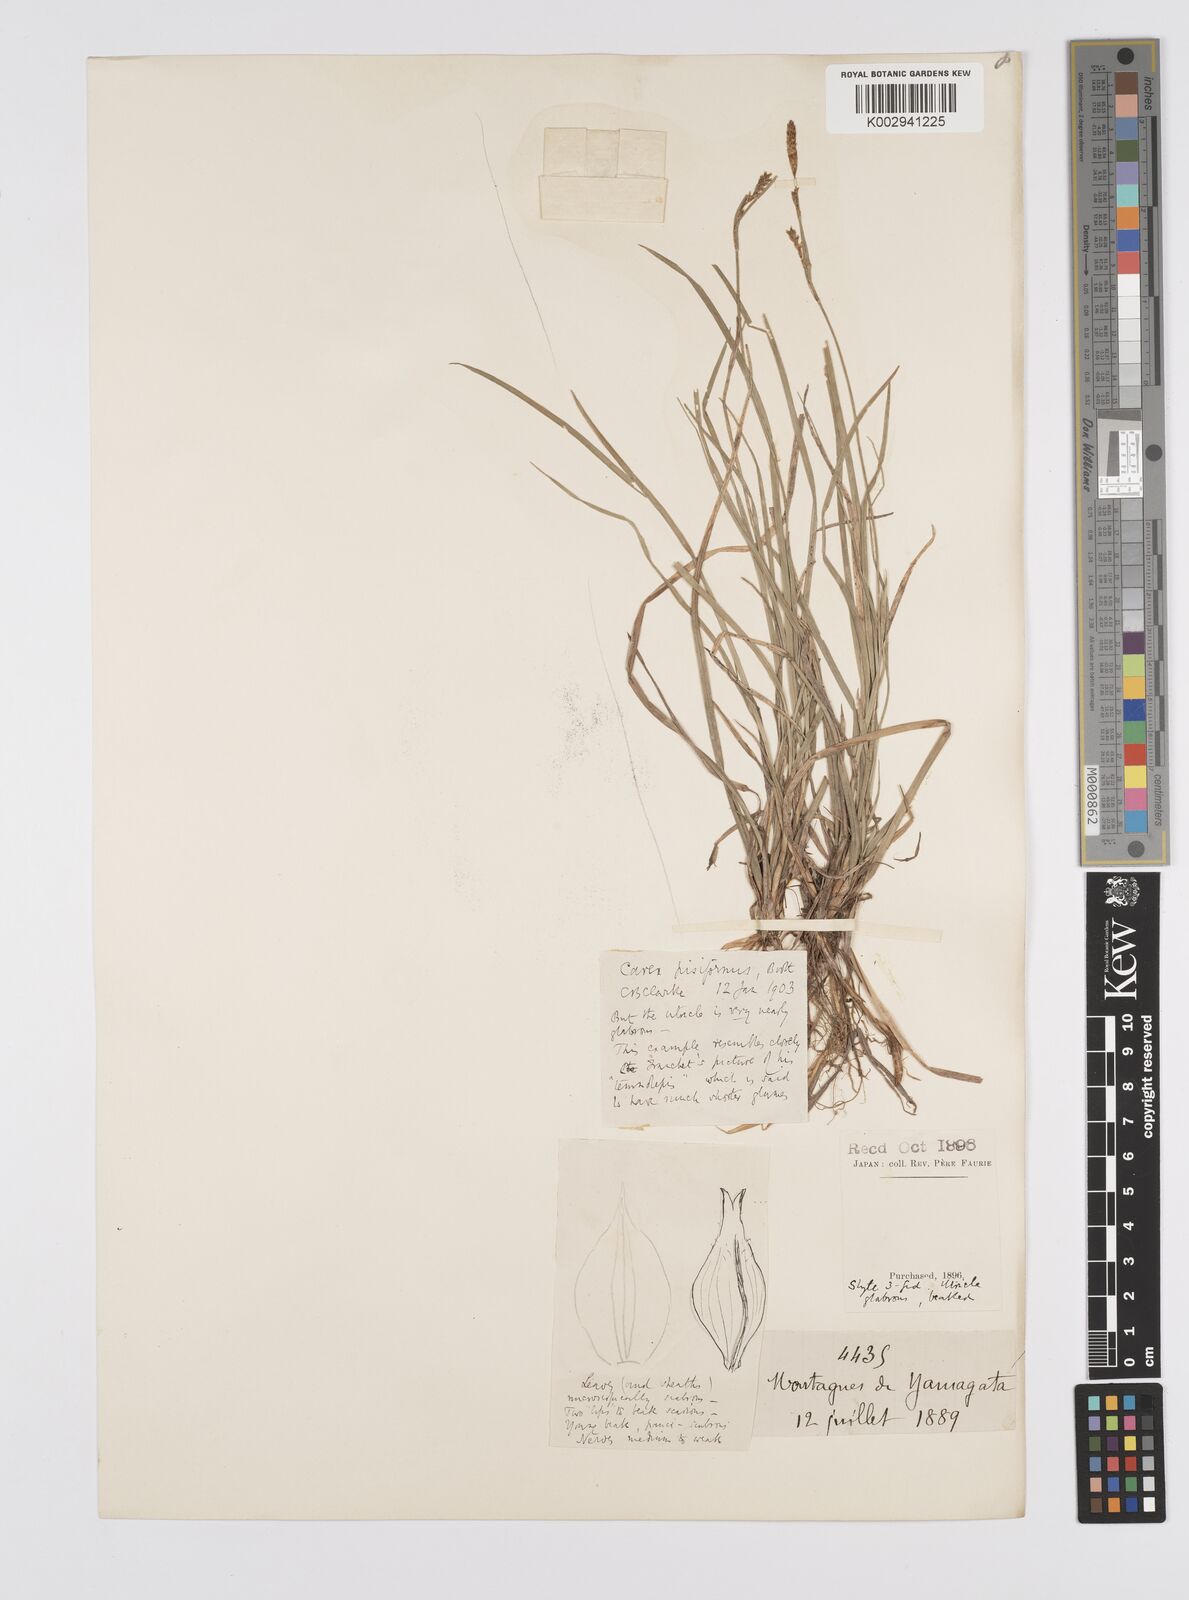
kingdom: Plantae
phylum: Tracheophyta
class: Liliopsida
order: Poales
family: Cyperaceae
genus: Carex
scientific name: Carex pisiformis
